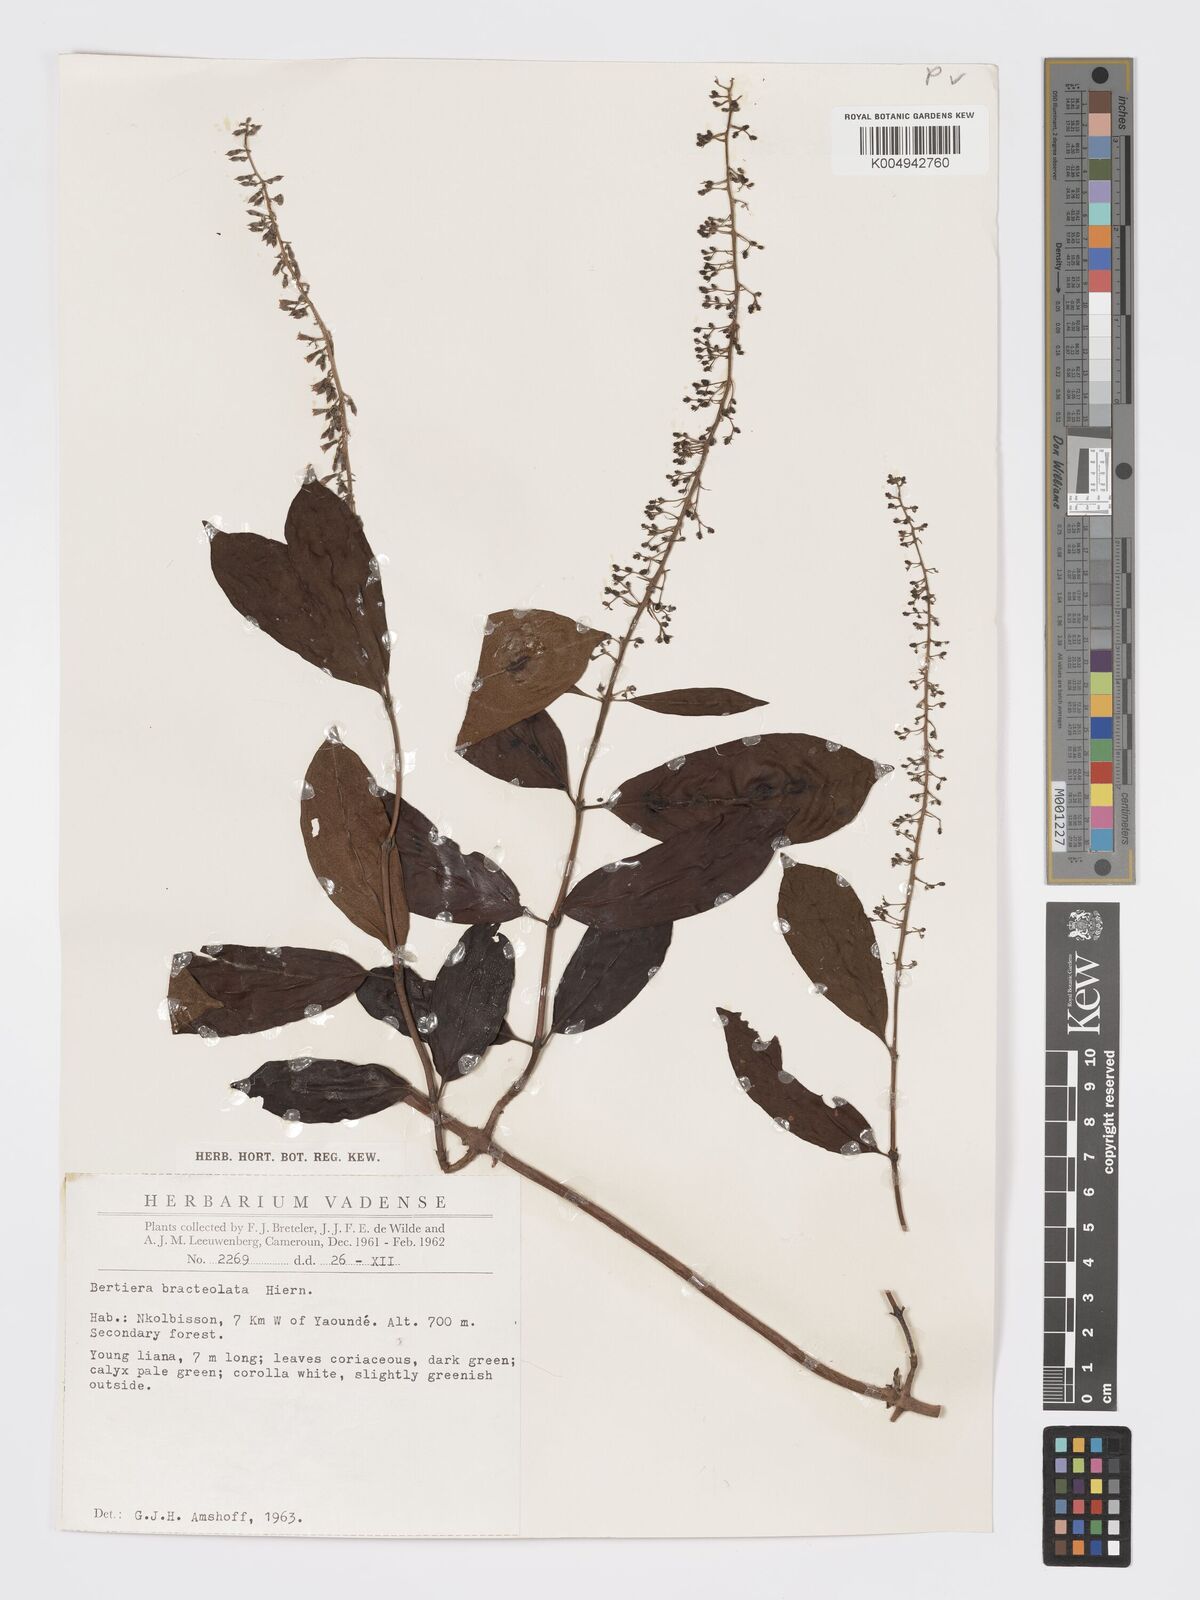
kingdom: Plantae
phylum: Tracheophyta
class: Magnoliopsida
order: Gentianales
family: Rubiaceae
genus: Bertiera
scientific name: Bertiera bracteolata
